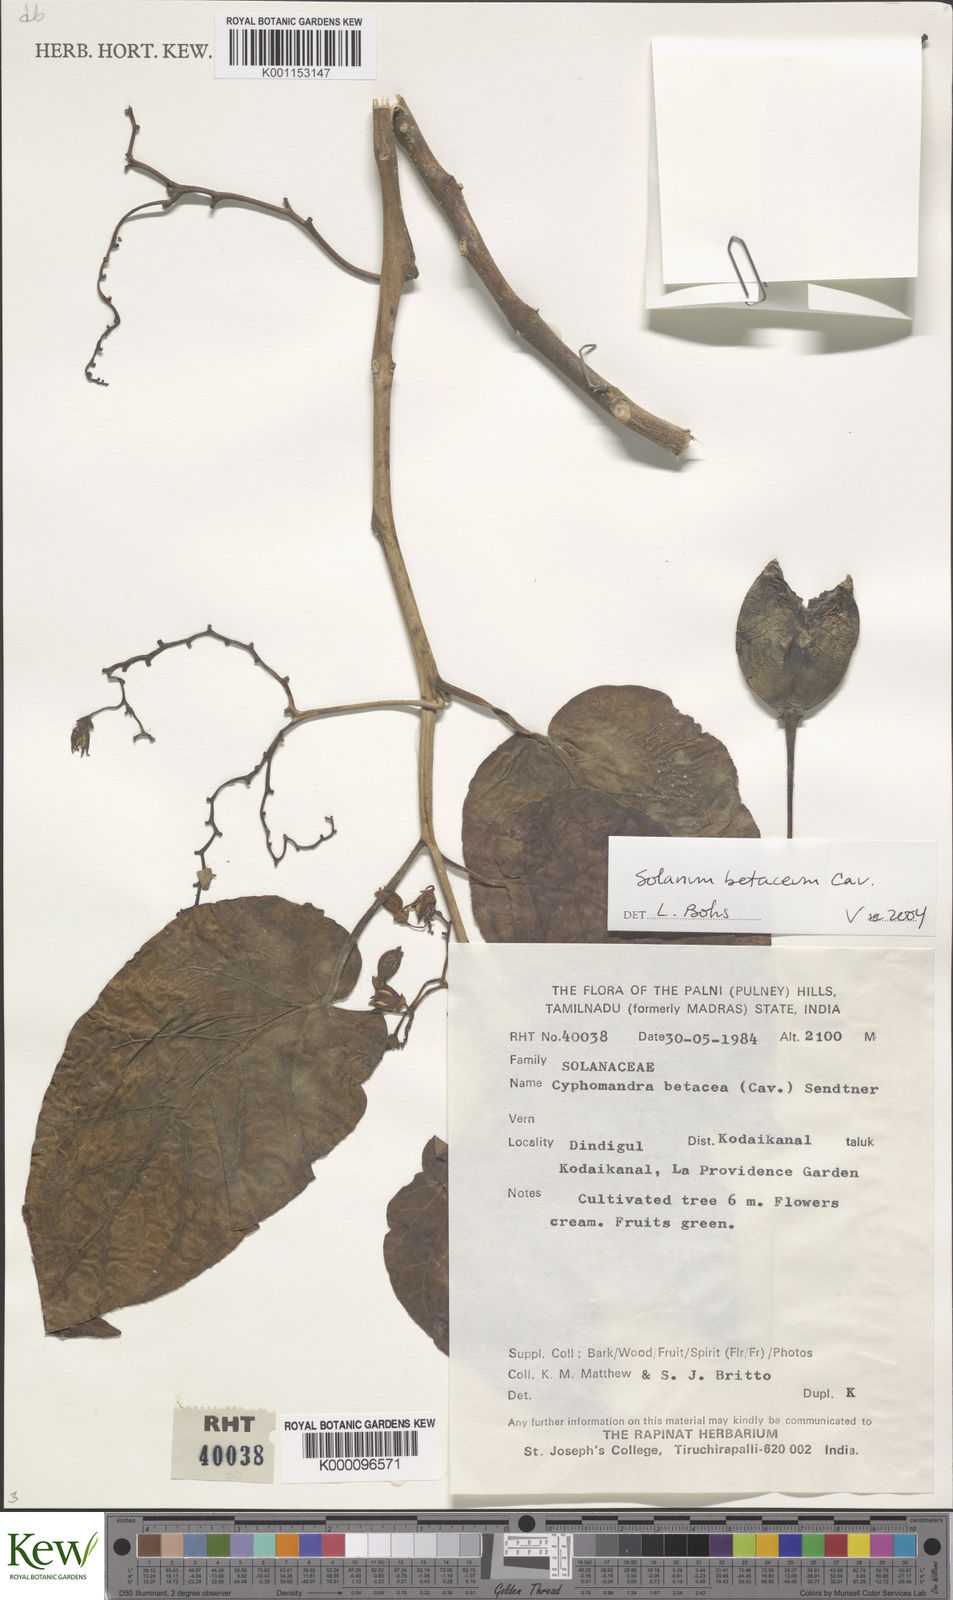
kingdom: Plantae
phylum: Tracheophyta
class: Magnoliopsida
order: Solanales
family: Solanaceae
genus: Solanum
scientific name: Solanum
